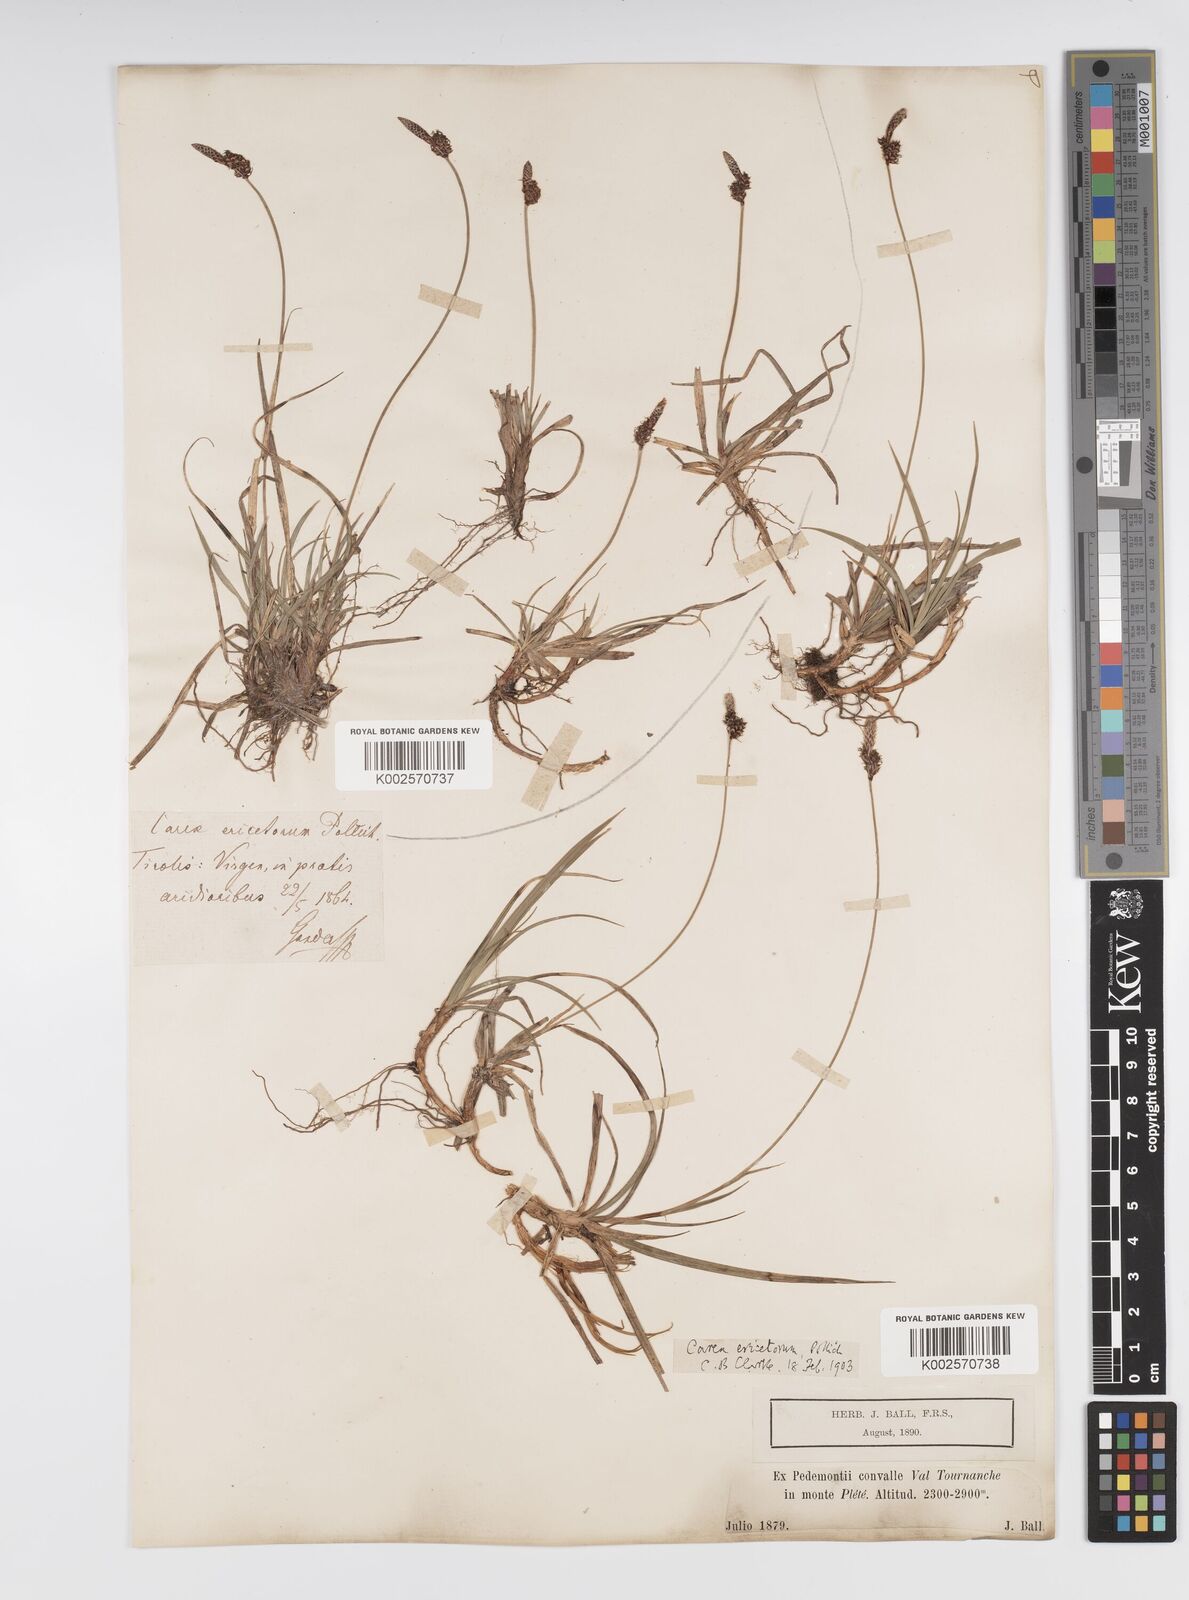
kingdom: Plantae
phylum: Tracheophyta
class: Liliopsida
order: Poales
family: Cyperaceae
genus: Carex
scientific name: Carex ericetorum
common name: Rare spring-sedge
